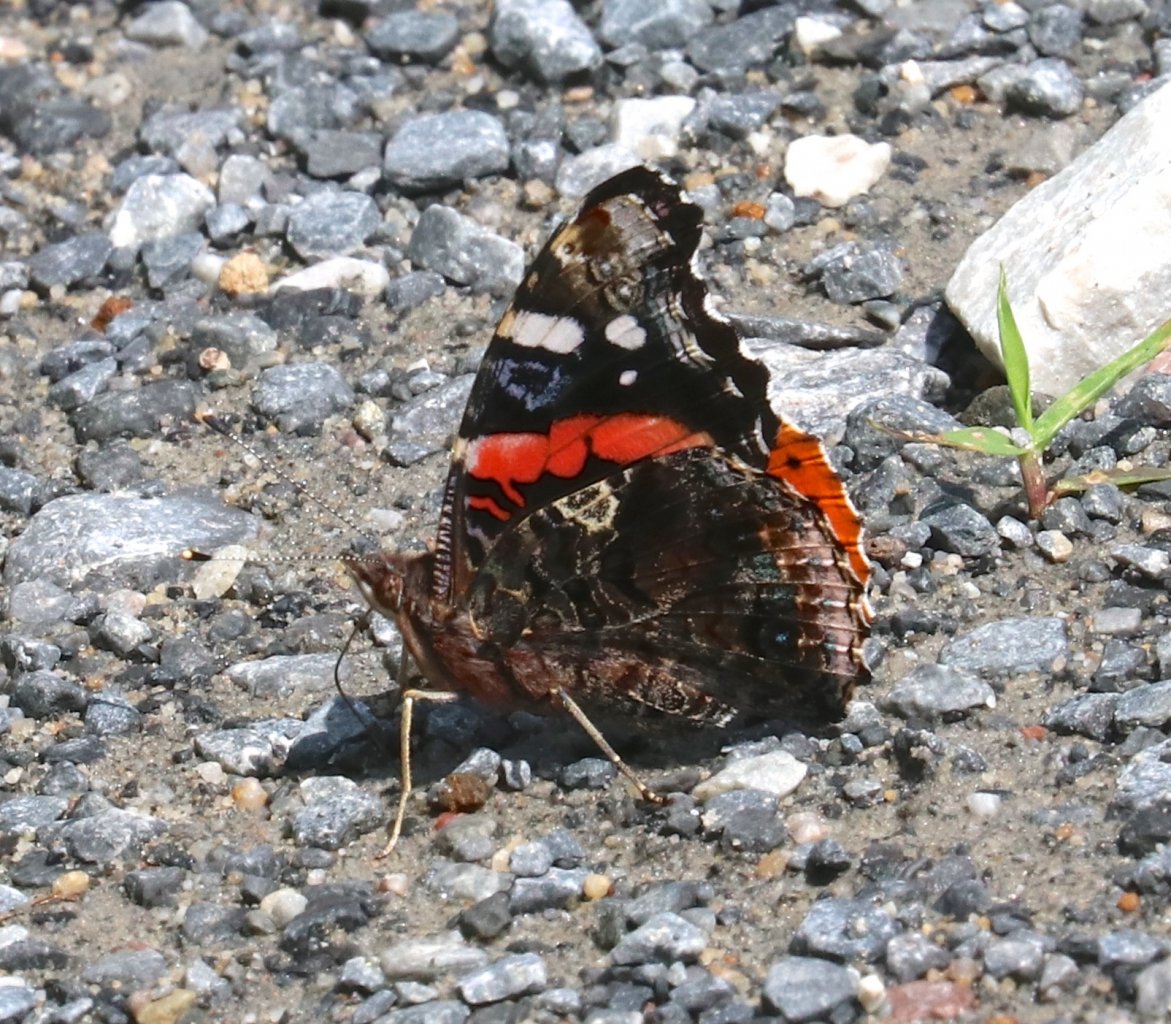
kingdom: Animalia
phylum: Arthropoda
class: Insecta
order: Lepidoptera
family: Nymphalidae
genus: Vanessa
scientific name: Vanessa atalanta
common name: Red Admiral
